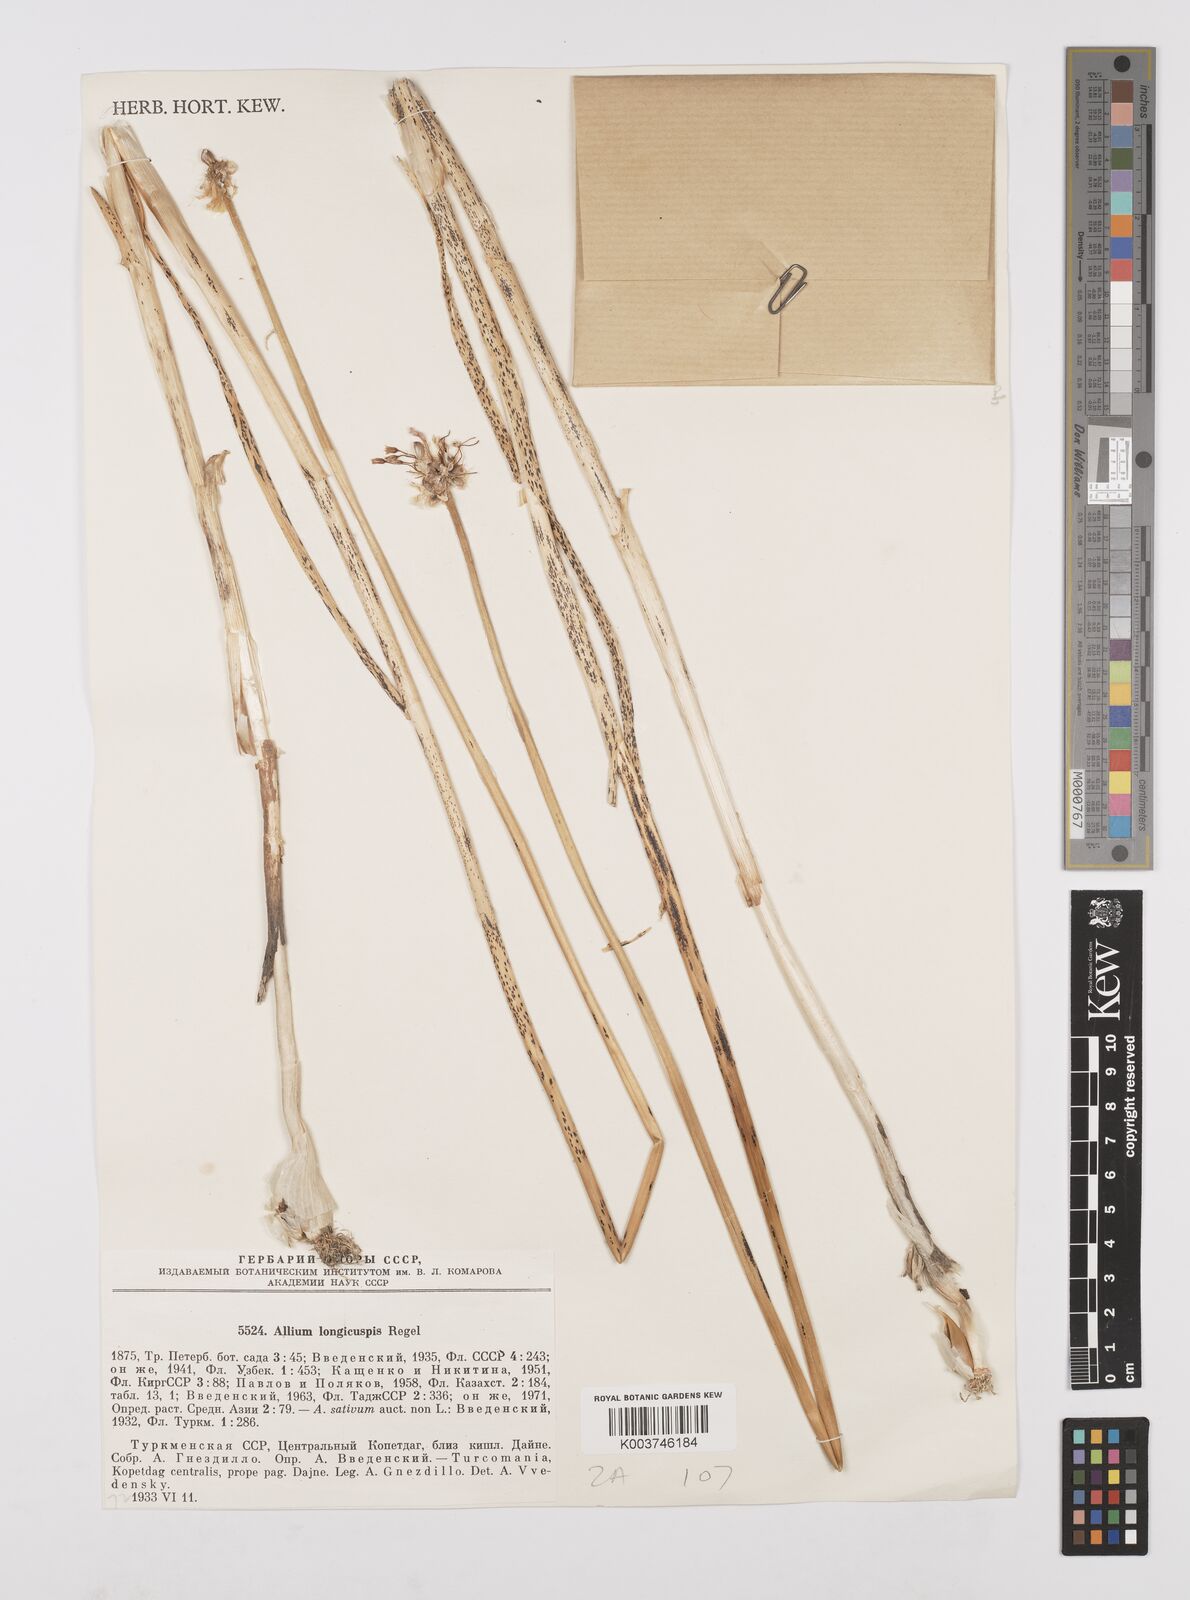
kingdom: Plantae
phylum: Tracheophyta
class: Liliopsida
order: Asparagales
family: Amaryllidaceae
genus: Allium
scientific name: Allium sativum
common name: Garlic
